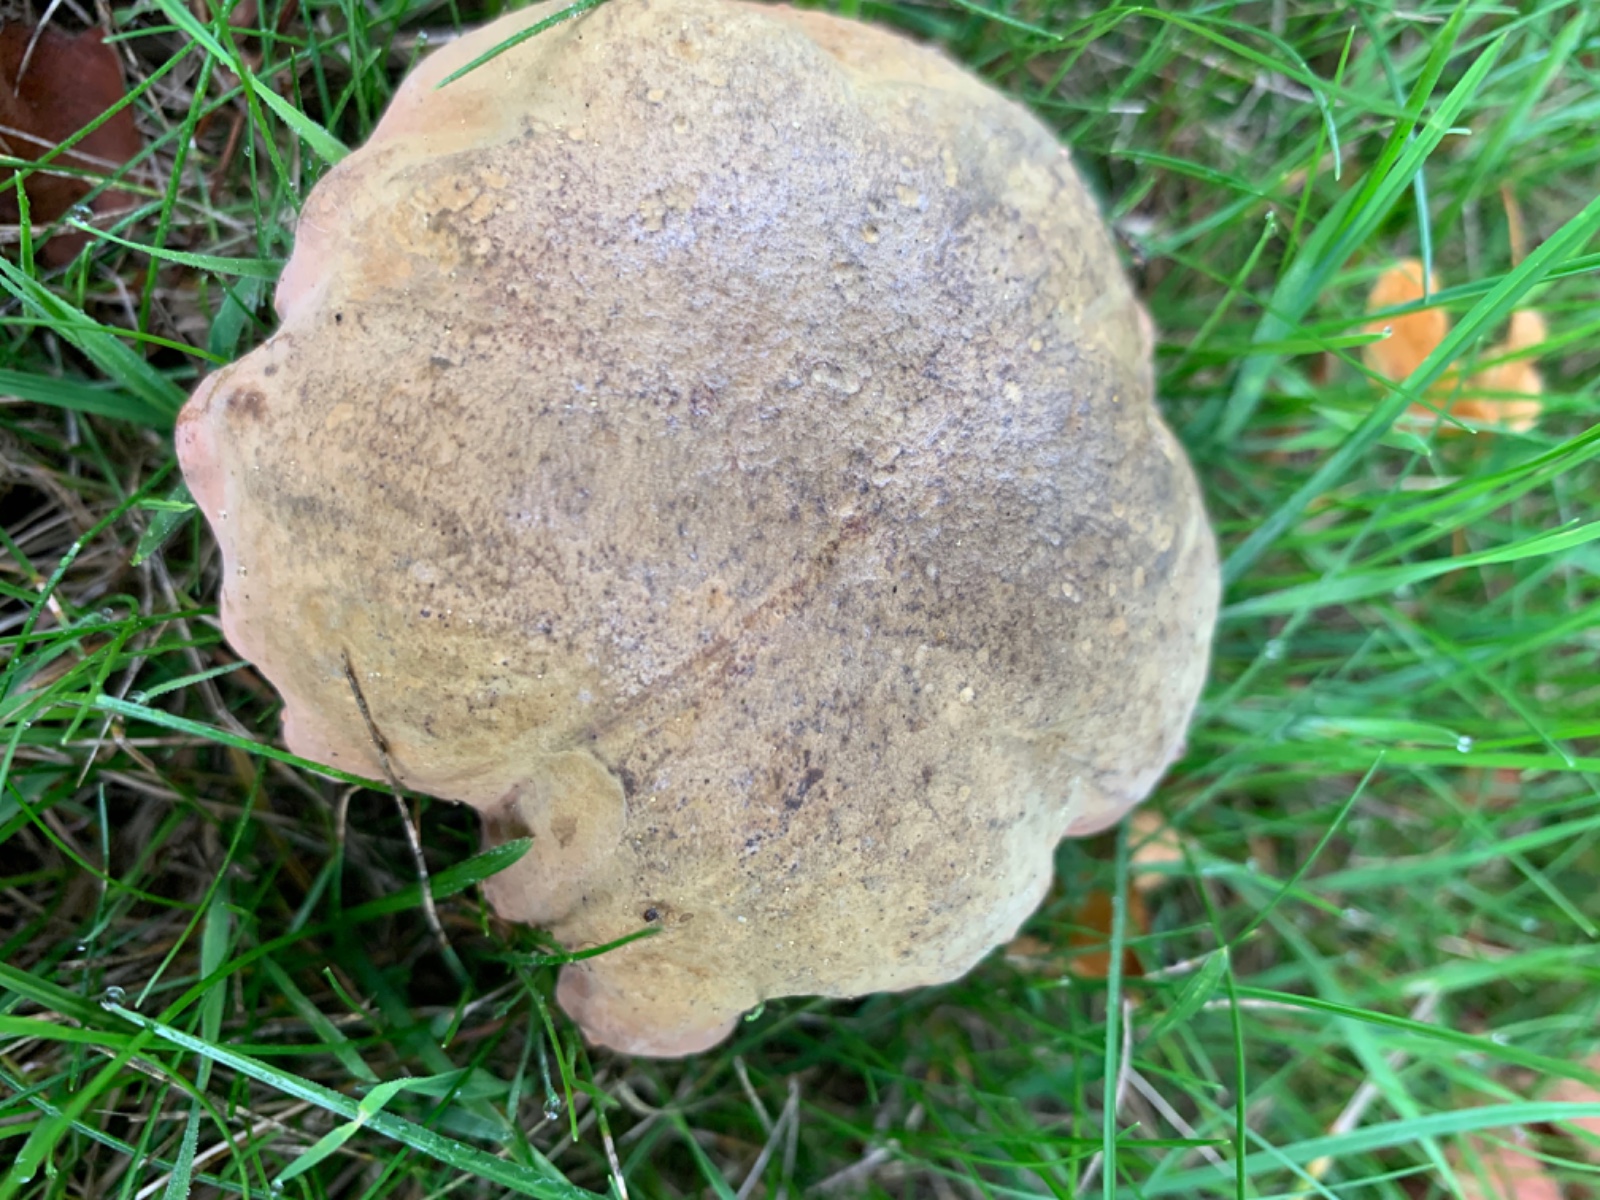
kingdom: Fungi
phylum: Basidiomycota
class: Agaricomycetes
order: Boletales
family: Boletaceae
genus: Suillellus
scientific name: Suillellus luridus
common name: netstokket indigorørhat
